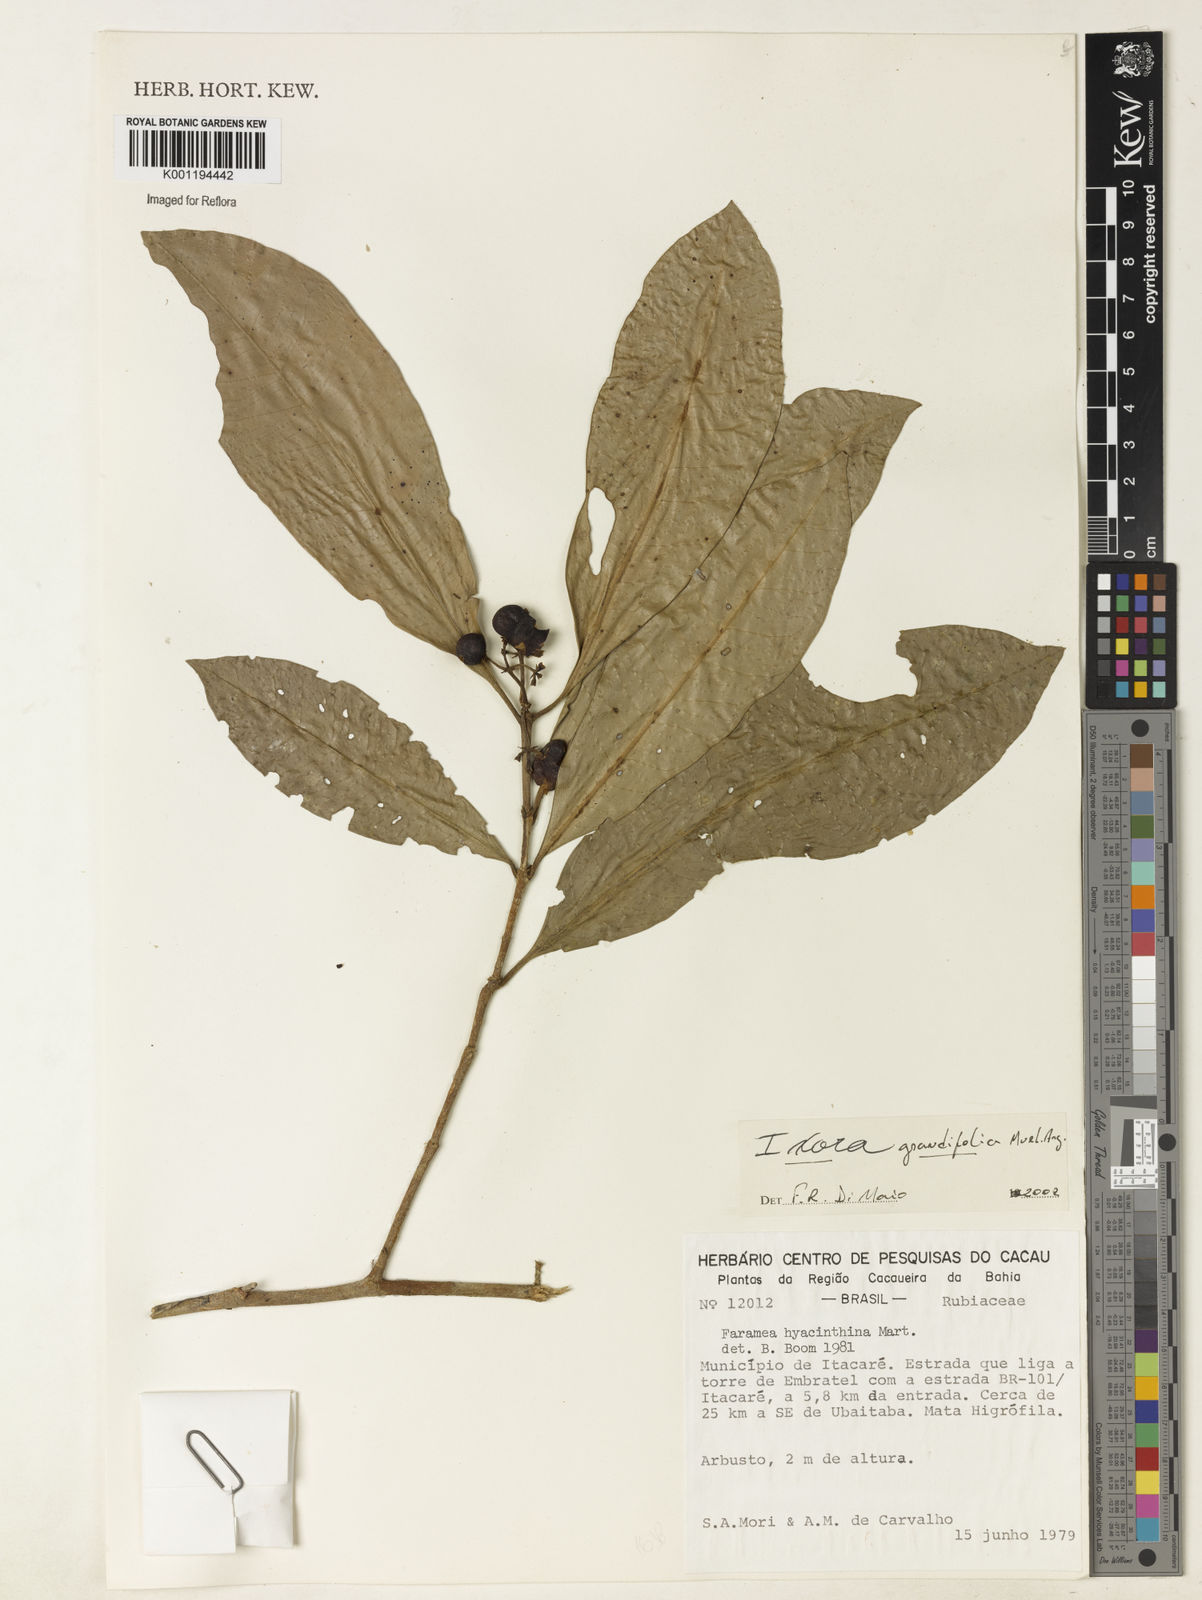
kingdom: Plantae
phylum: Tracheophyta
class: Magnoliopsida
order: Gentianales
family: Rubiaceae
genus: Ixora
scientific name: Ixora
